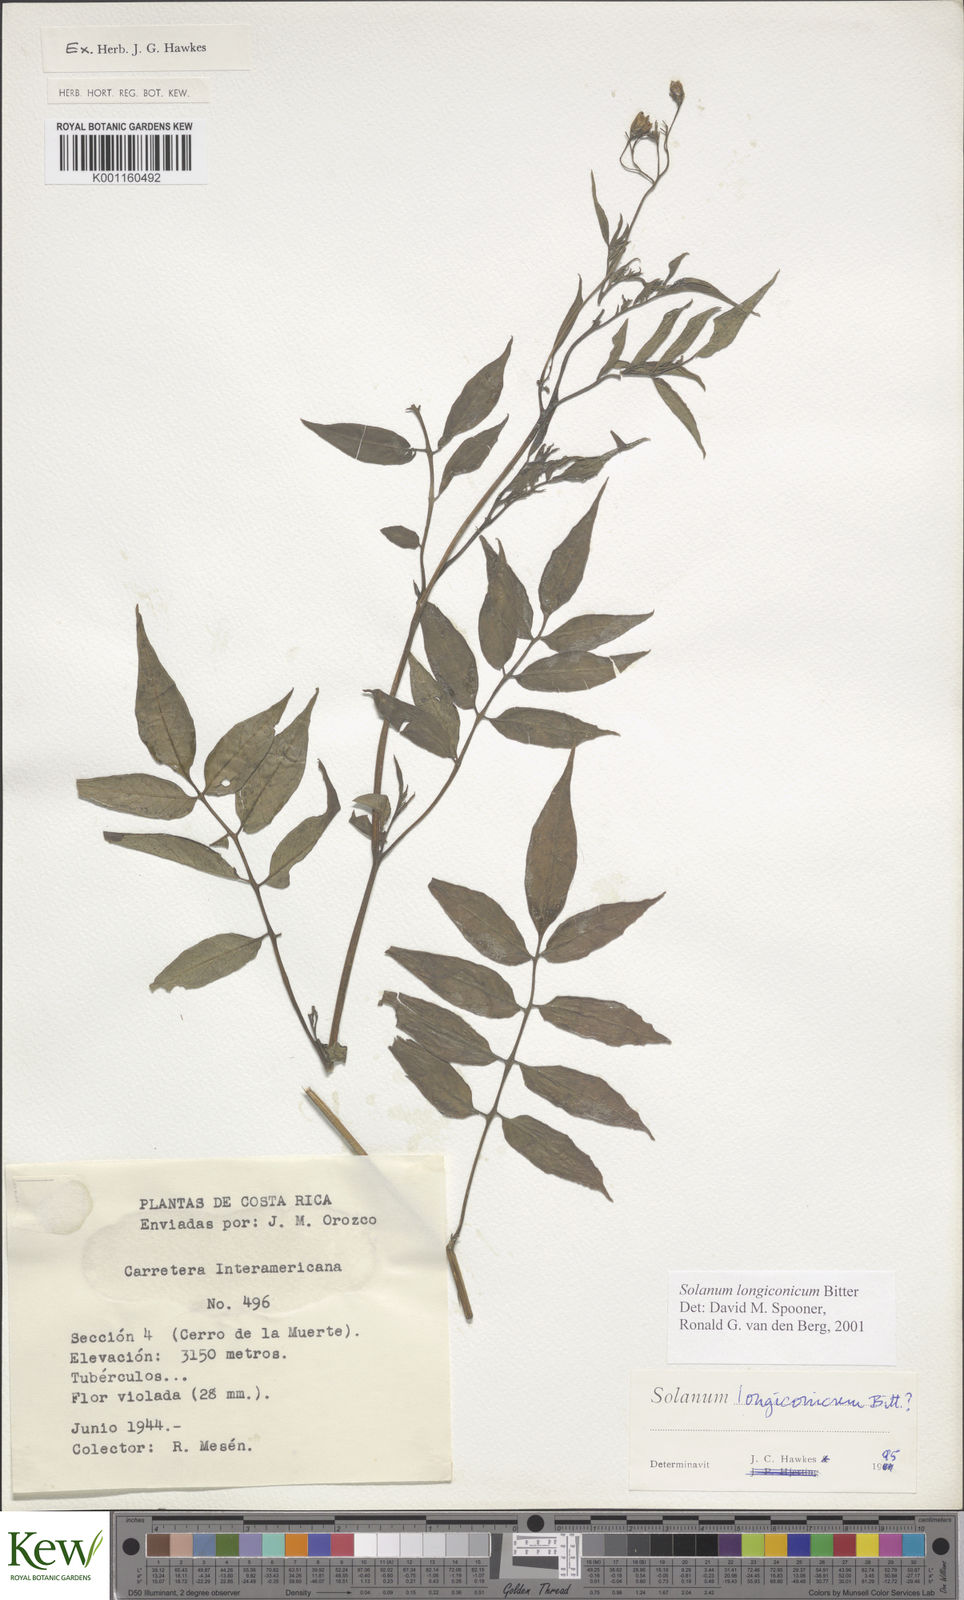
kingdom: Plantae
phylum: Tracheophyta
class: Magnoliopsida
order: Solanales
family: Solanaceae
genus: Solanum
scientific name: Solanum longiconicum
